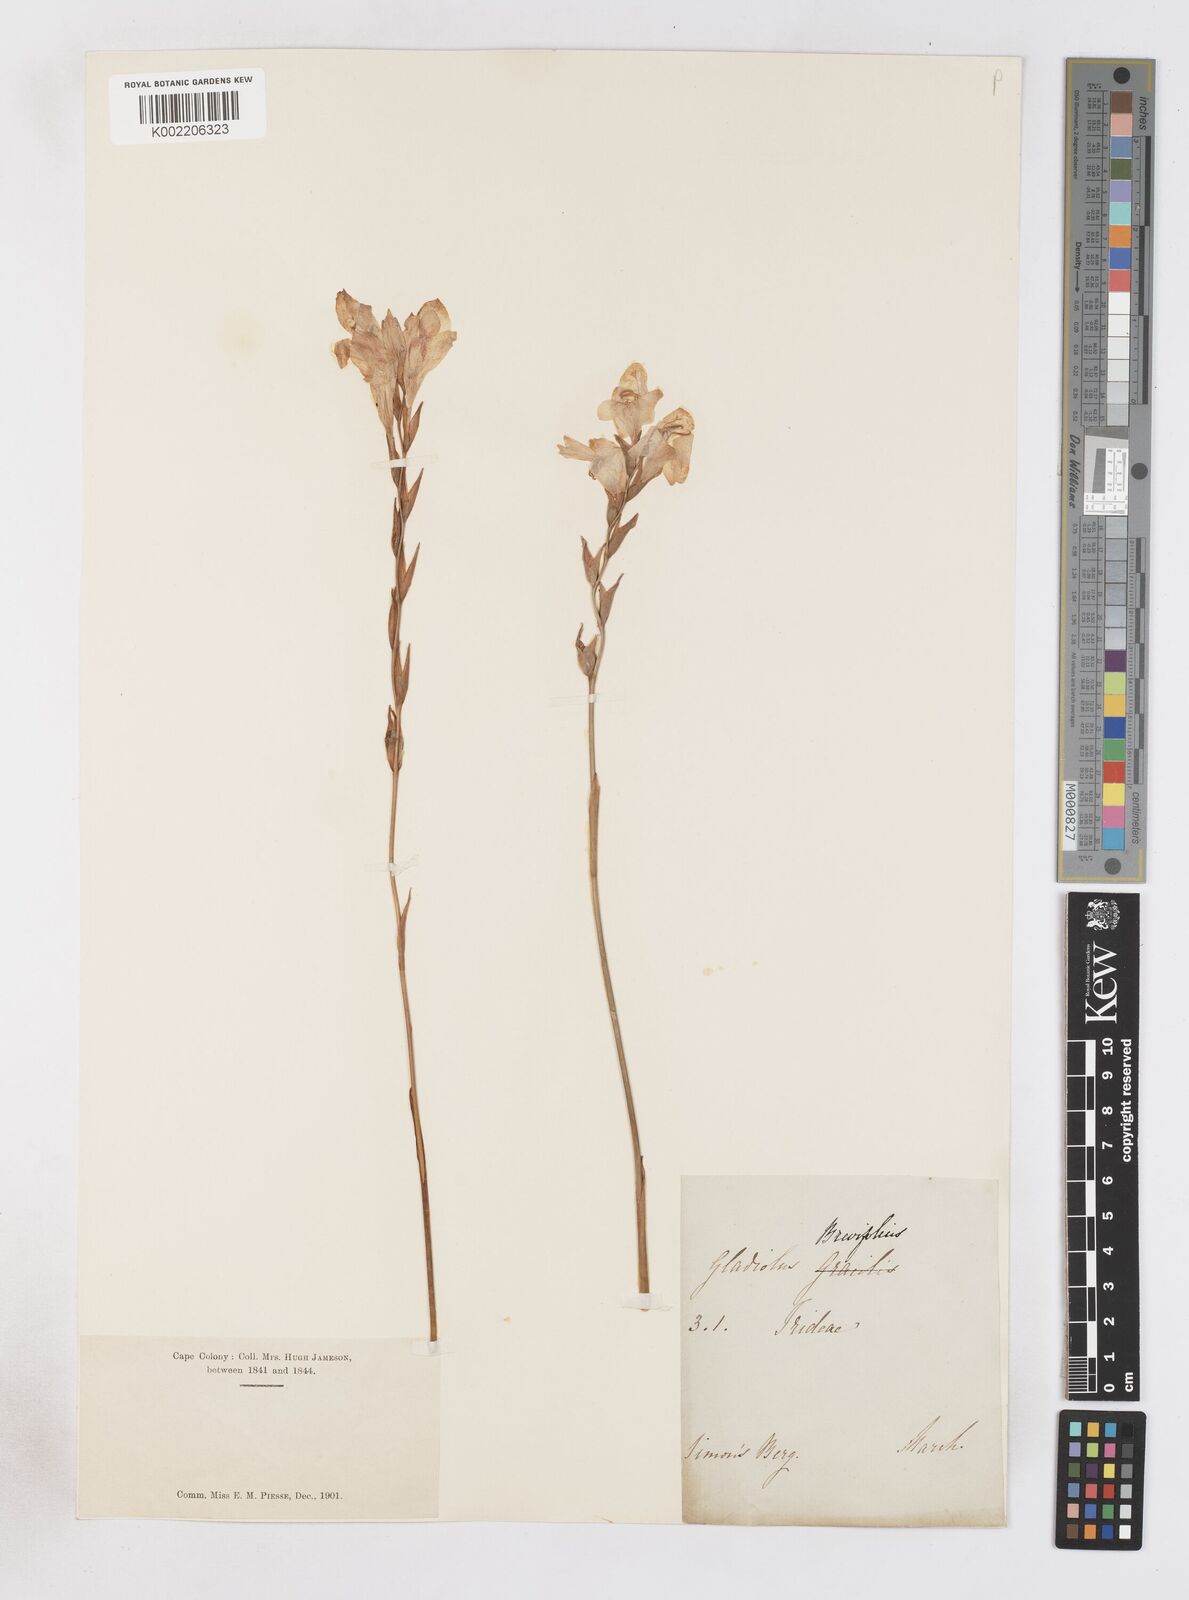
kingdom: Plantae
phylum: Tracheophyta
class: Liliopsida
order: Asparagales
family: Iridaceae
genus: Gladiolus
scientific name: Gladiolus brevifolius
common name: March pypie
